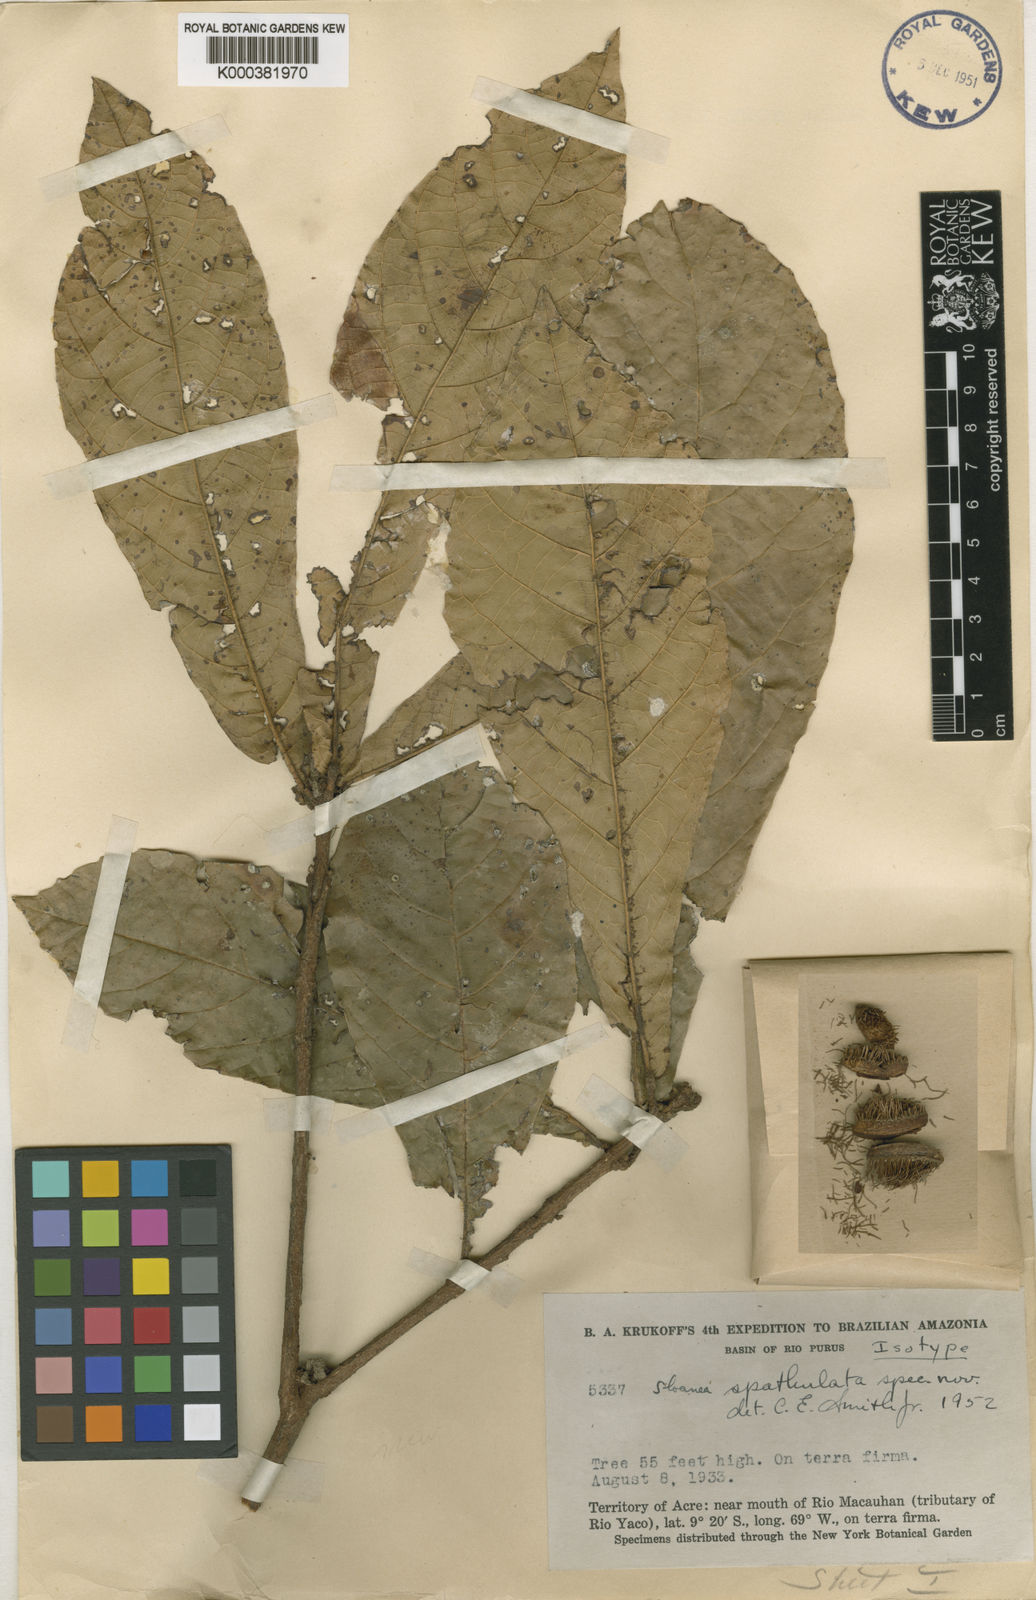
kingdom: Plantae
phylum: Tracheophyta
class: Magnoliopsida
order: Oxalidales
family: Elaeocarpaceae
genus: Sloanea
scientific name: Sloanea spathulata
